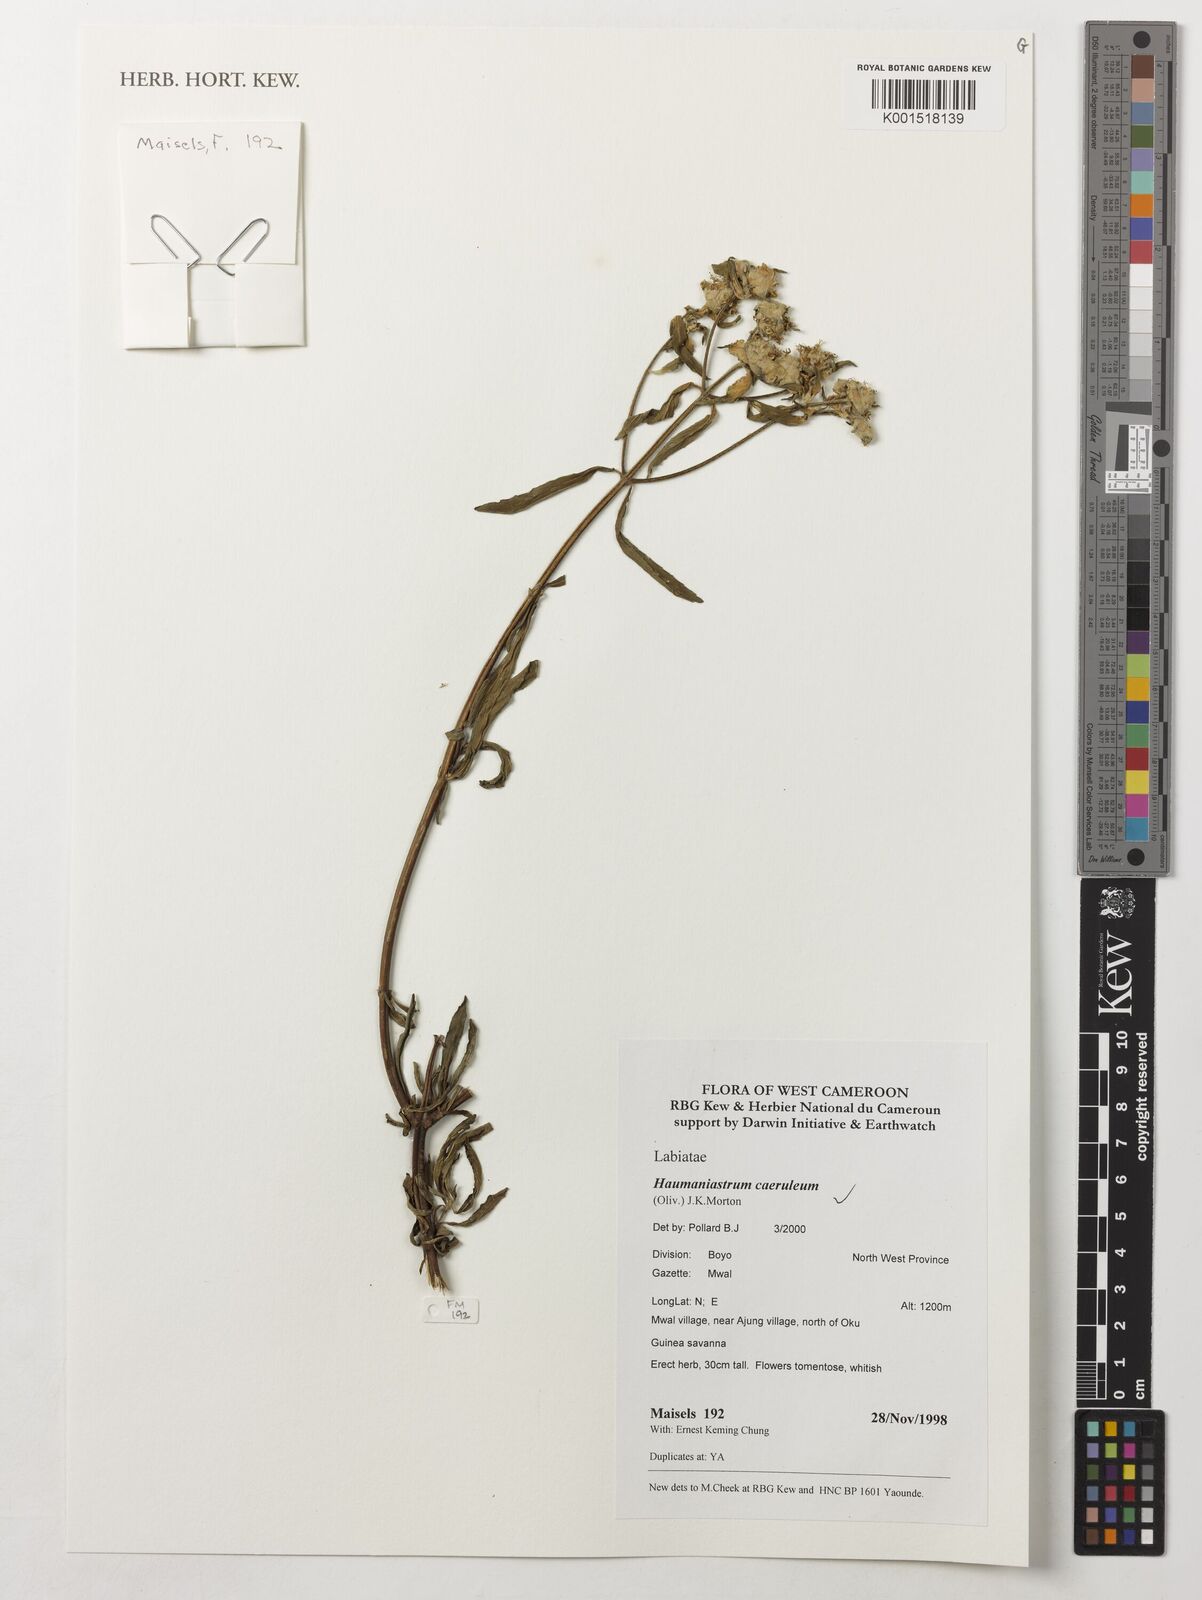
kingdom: Plantae
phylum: Tracheophyta
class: Magnoliopsida
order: Lamiales
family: Lamiaceae
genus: Haumaniastrum
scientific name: Haumaniastrum caeruleum
